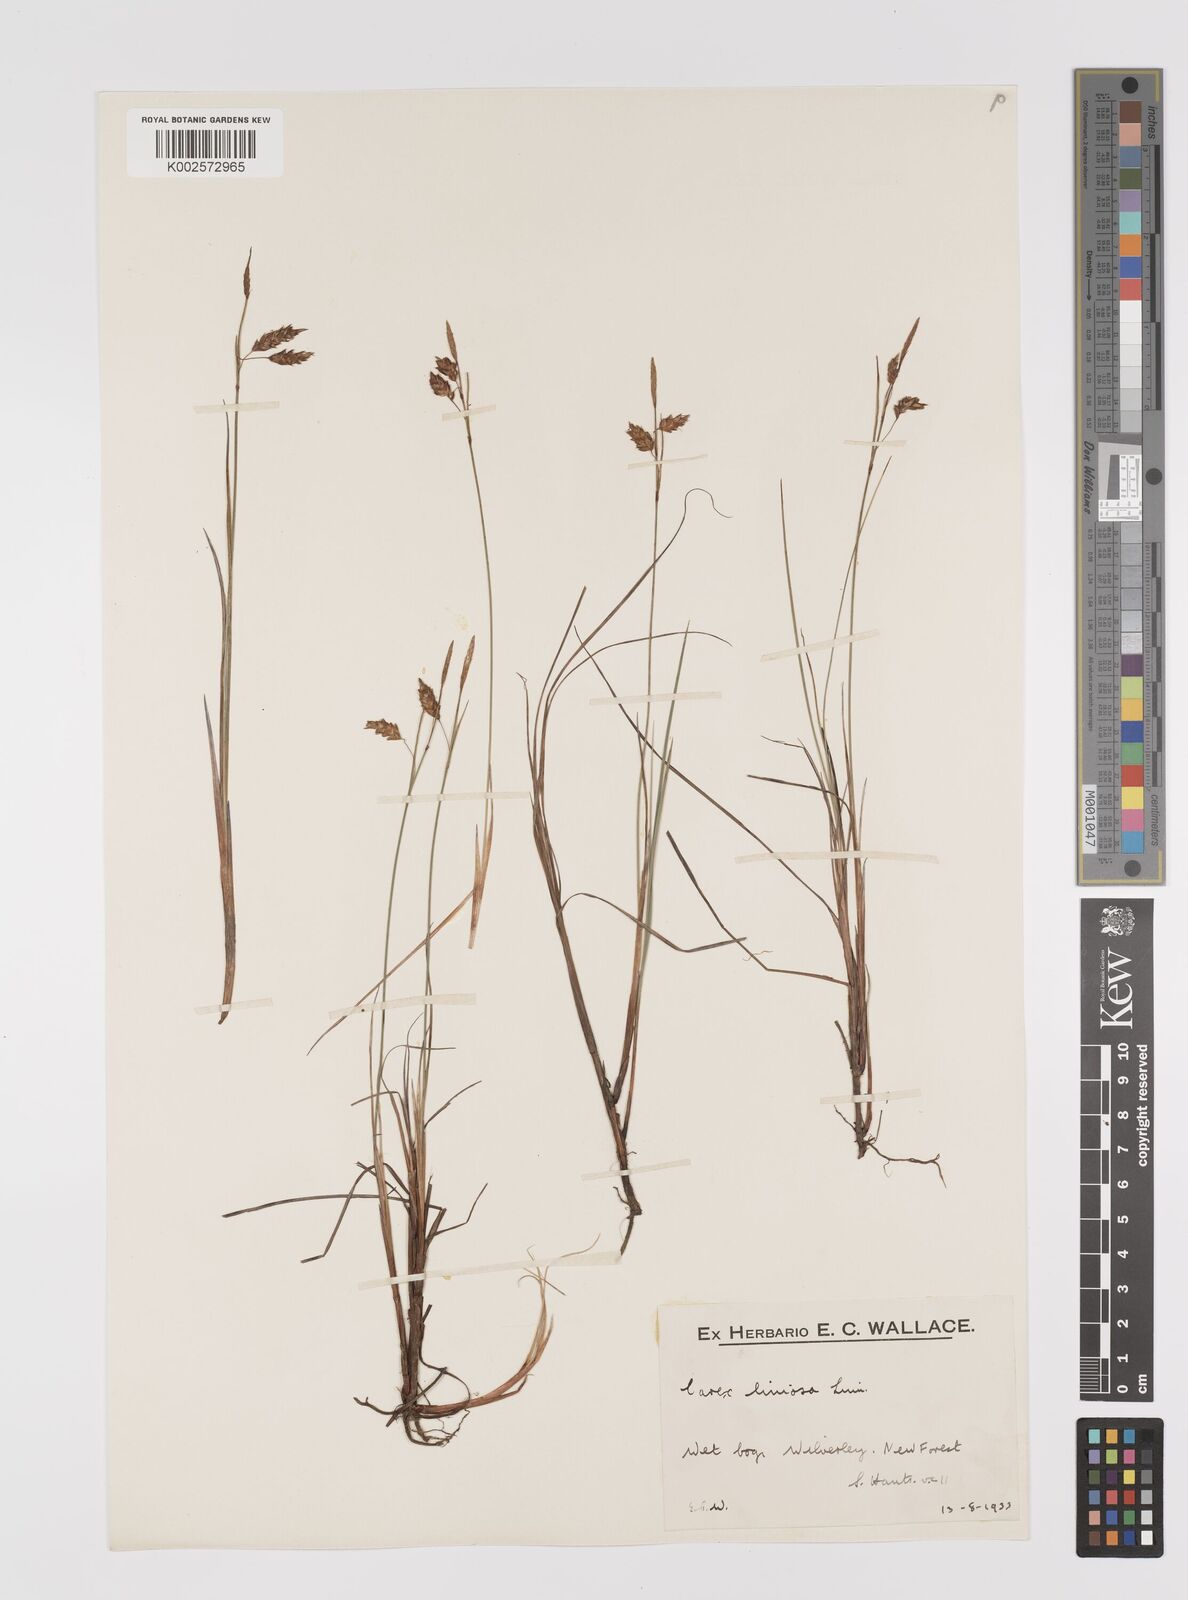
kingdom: Plantae
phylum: Tracheophyta
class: Liliopsida
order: Poales
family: Cyperaceae
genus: Carex
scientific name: Carex limosa
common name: Bog sedge
